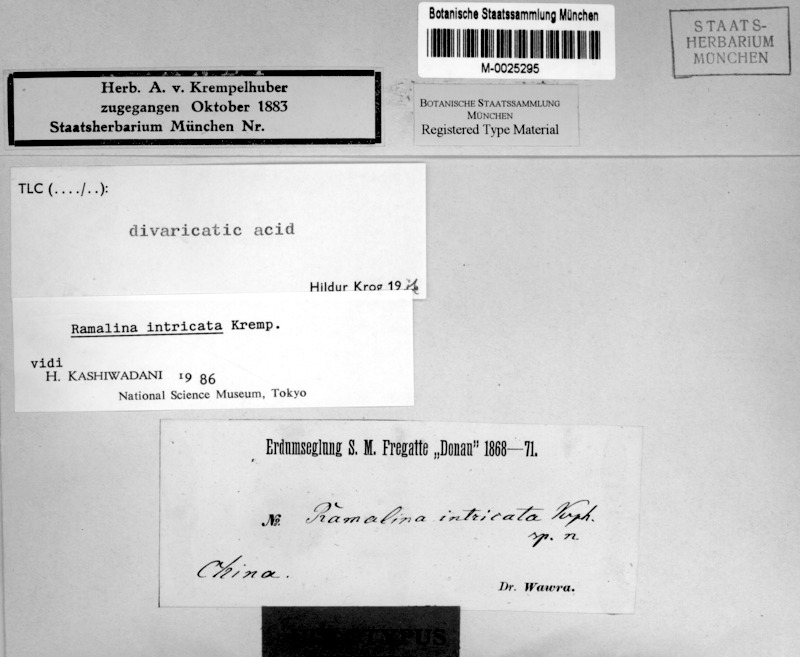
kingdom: Fungi
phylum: Ascomycota
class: Lecanoromycetes
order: Lecanorales
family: Ramalinaceae
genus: Ramalina
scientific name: Ramalina
